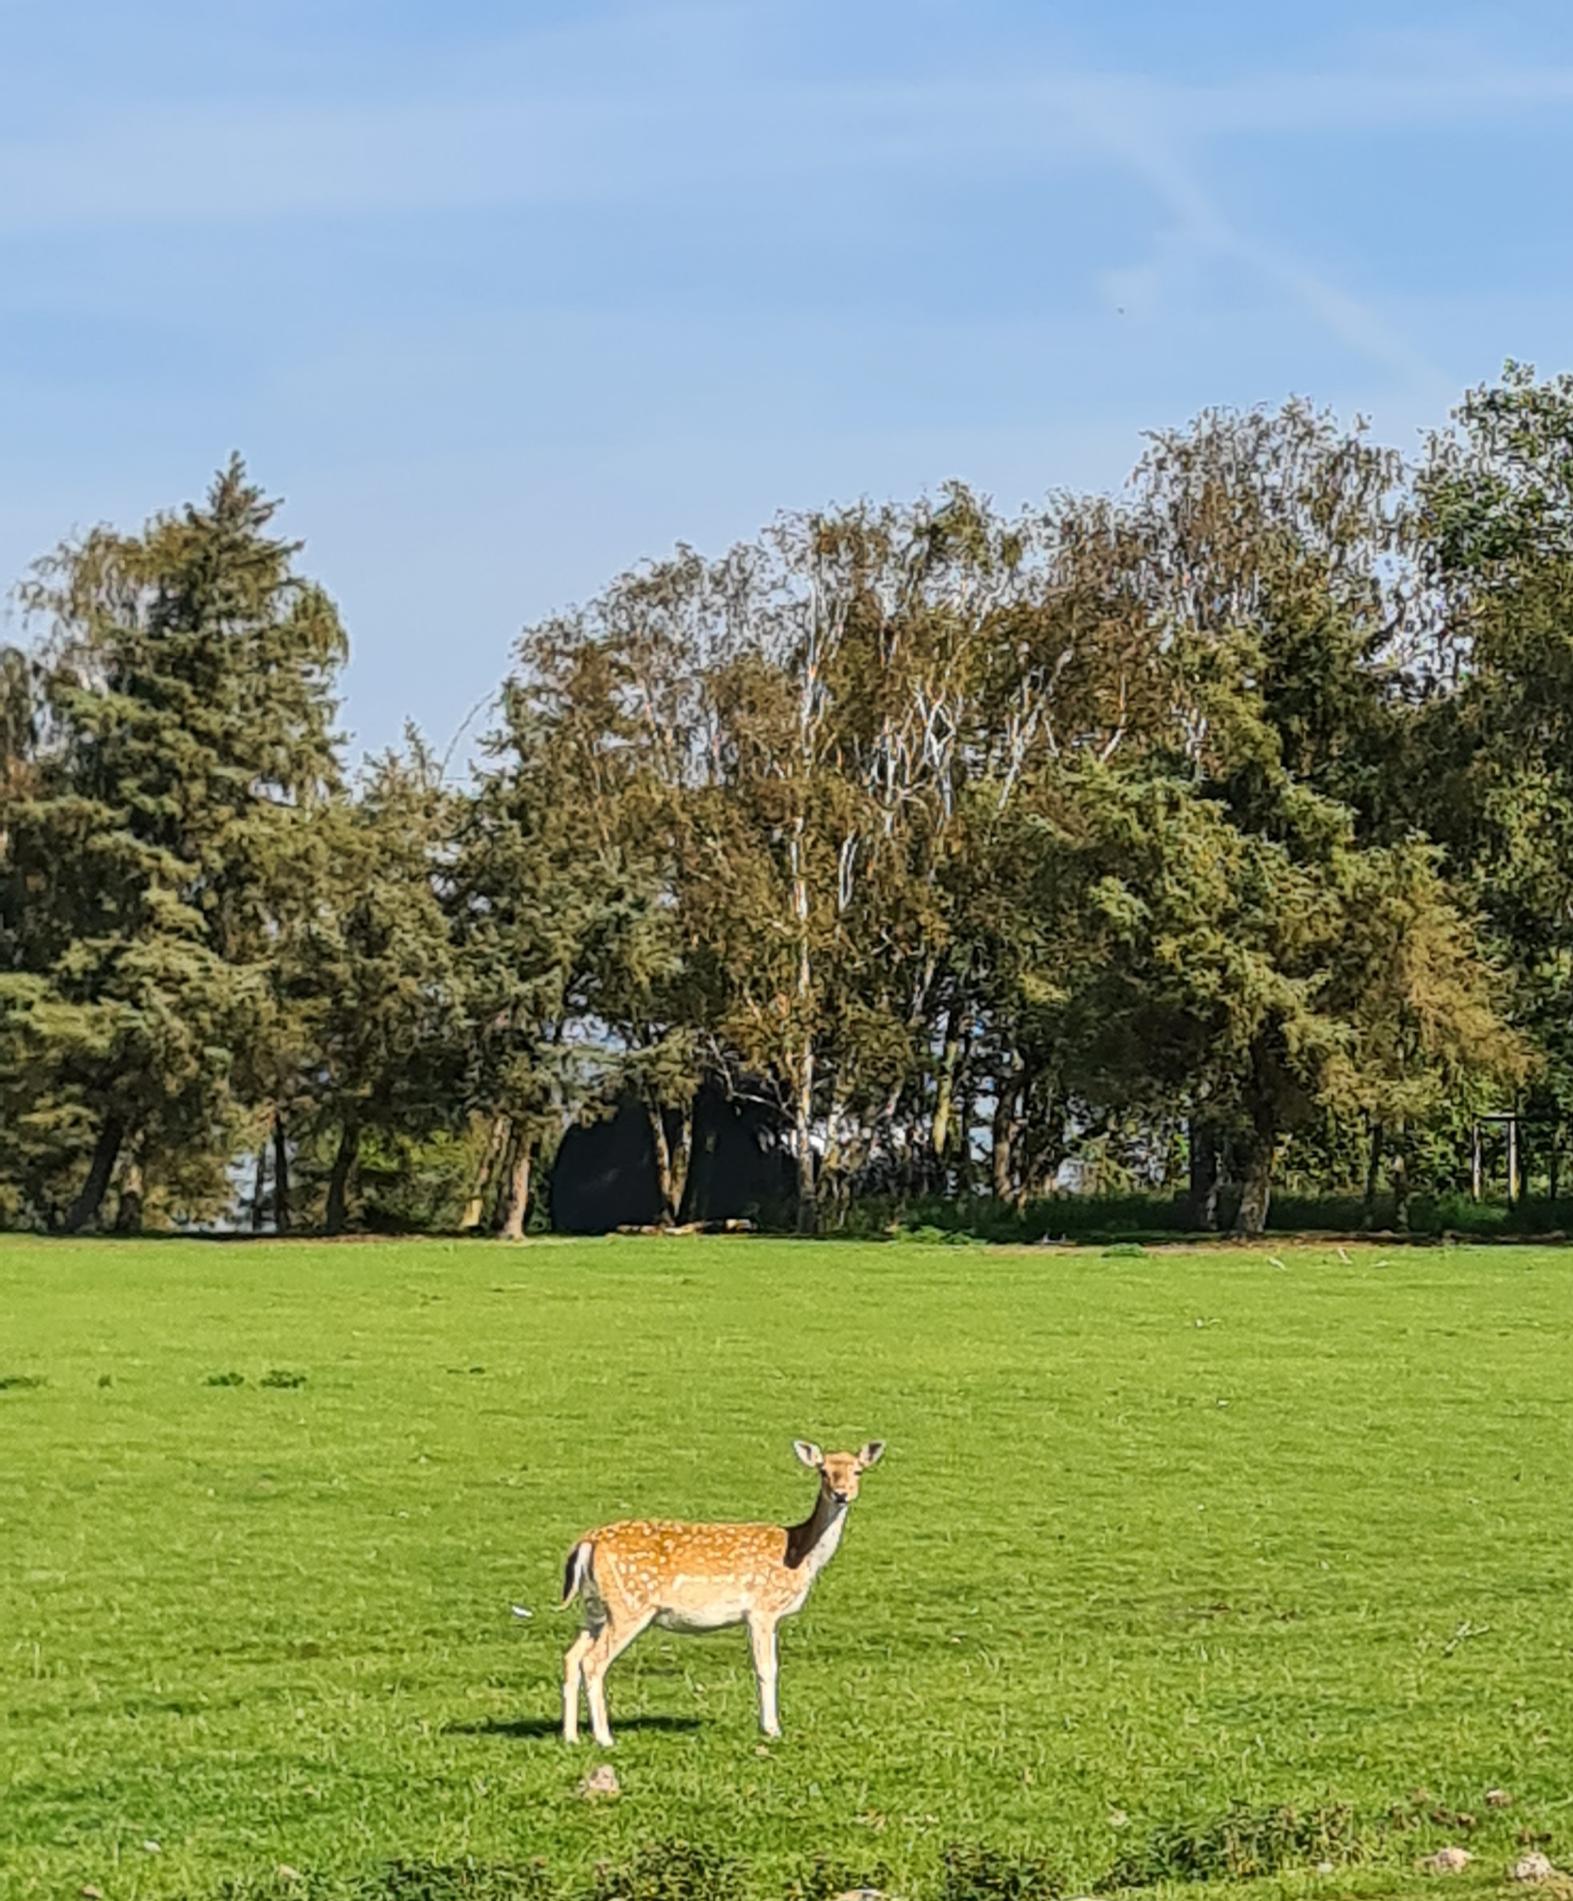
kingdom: Animalia
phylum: Chordata
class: Mammalia
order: Artiodactyla
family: Cervidae
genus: Dama
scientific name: Dama dama
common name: Dådyr
